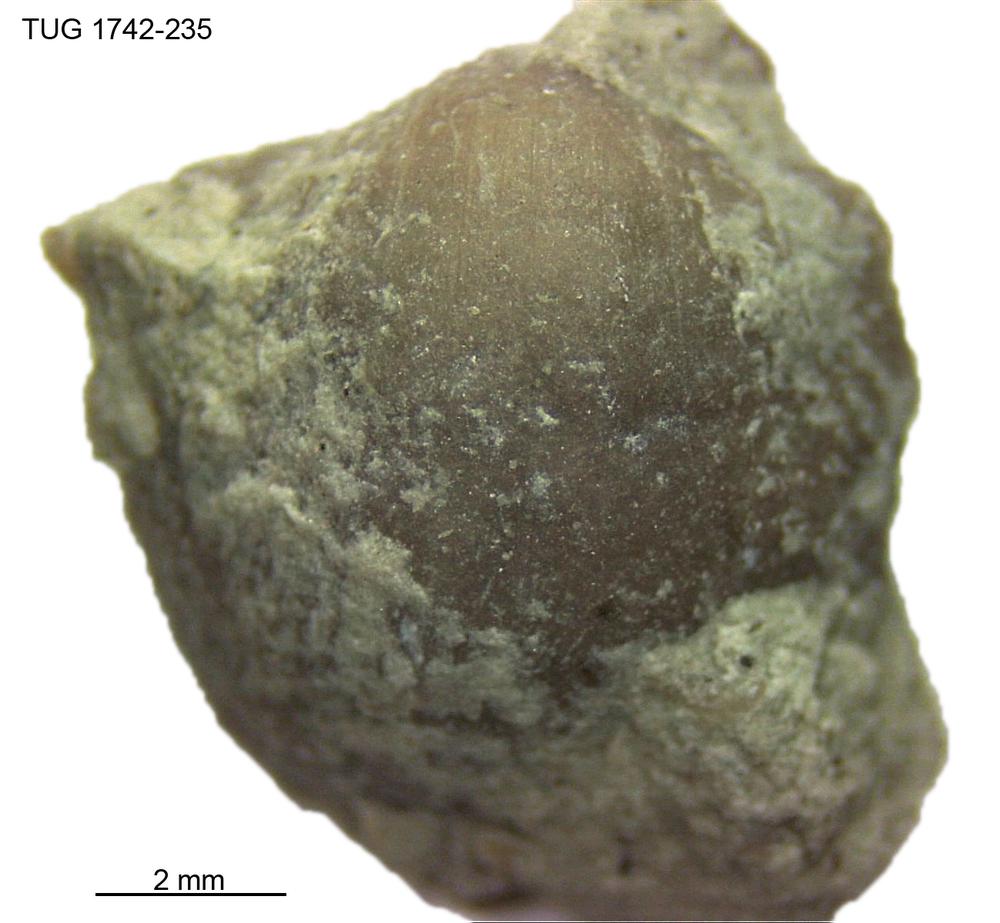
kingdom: Animalia
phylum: Brachiopoda
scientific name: Brachiopoda
